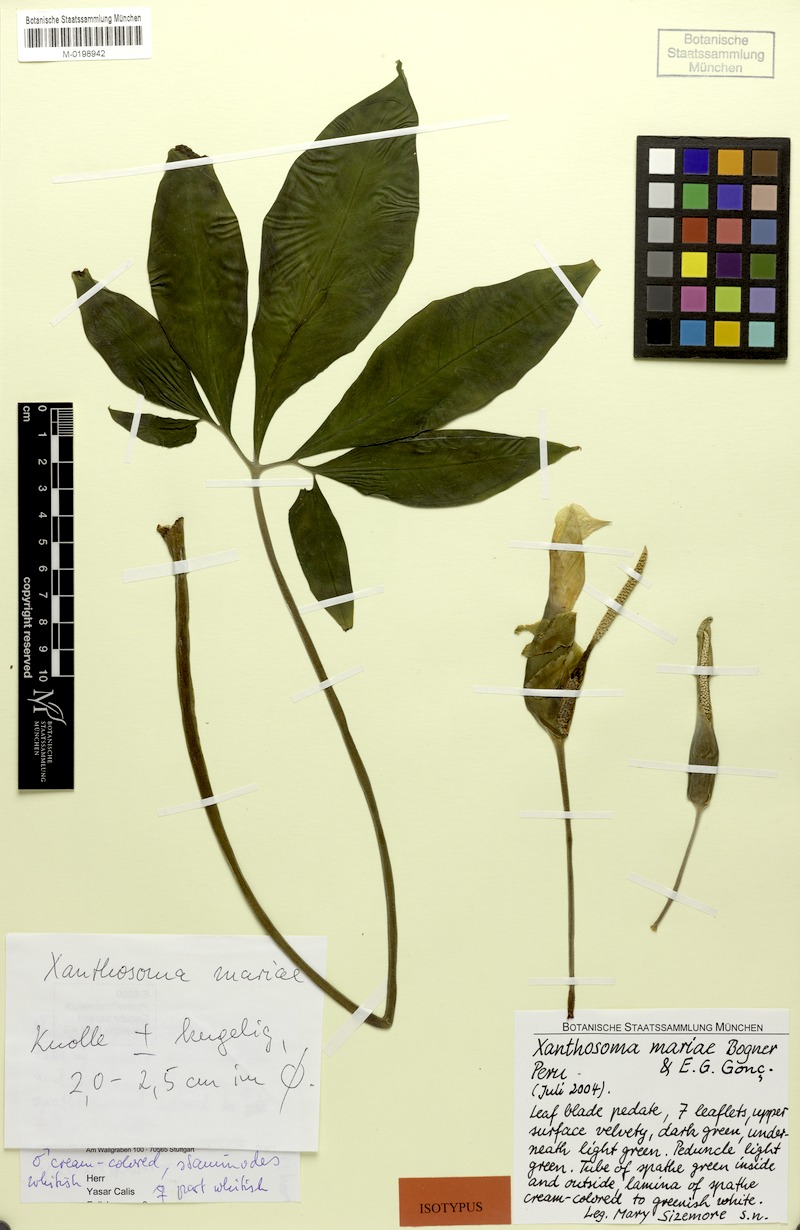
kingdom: Plantae
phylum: Tracheophyta
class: Liliopsida
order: Alismatales
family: Araceae
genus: Xanthosoma
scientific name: Xanthosoma mariae
